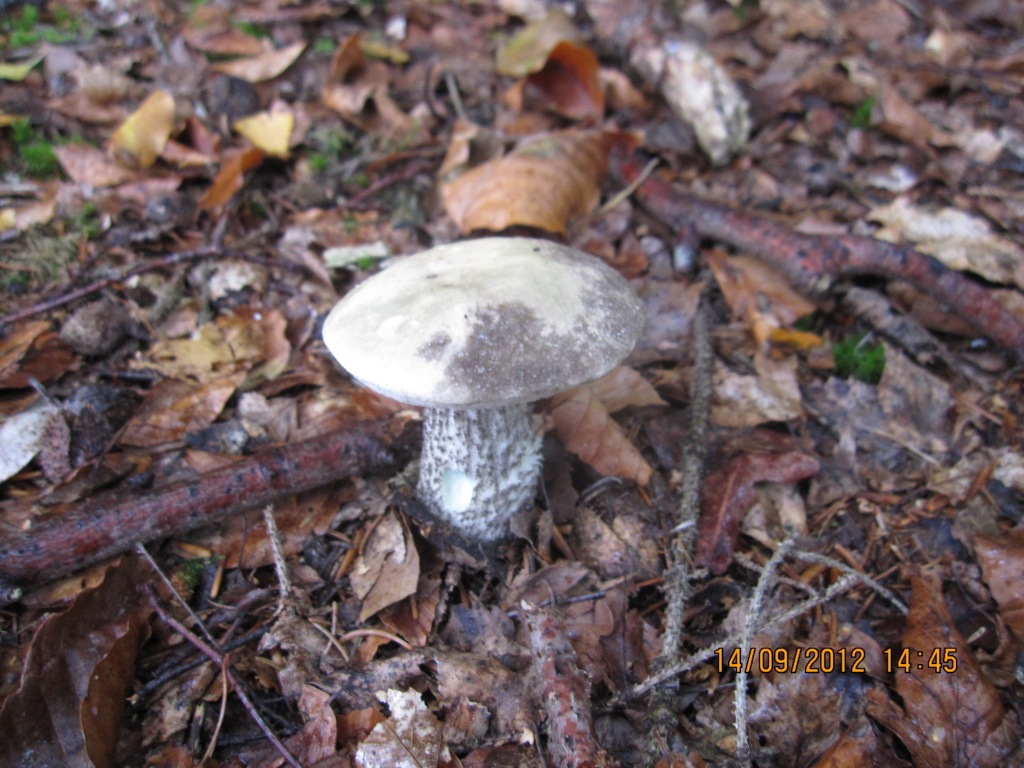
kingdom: Fungi
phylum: Basidiomycota
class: Agaricomycetes
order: Boletales
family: Boletaceae
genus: Leccinum
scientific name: Leccinum variicolor
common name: flammet skælrørhat
